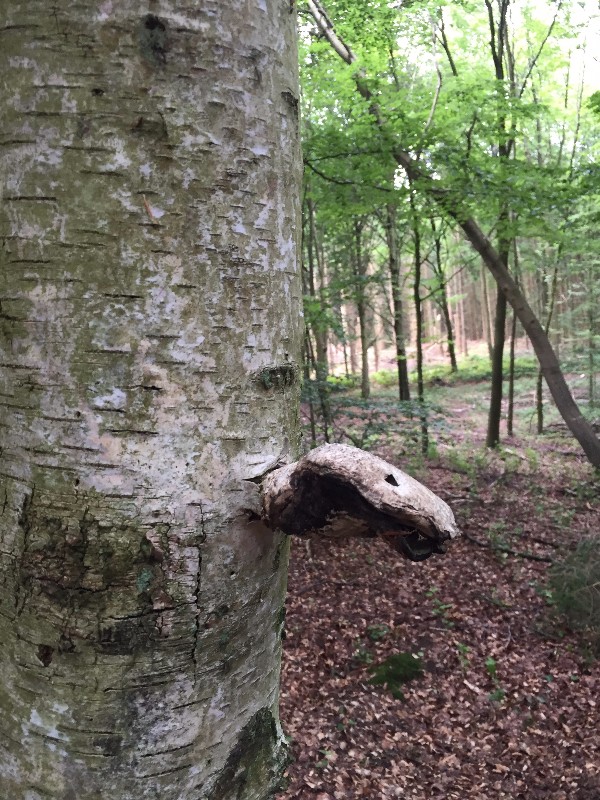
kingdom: Fungi
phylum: Basidiomycota
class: Agaricomycetes
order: Polyporales
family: Fomitopsidaceae
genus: Fomitopsis
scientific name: Fomitopsis betulina
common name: birkeporesvamp
